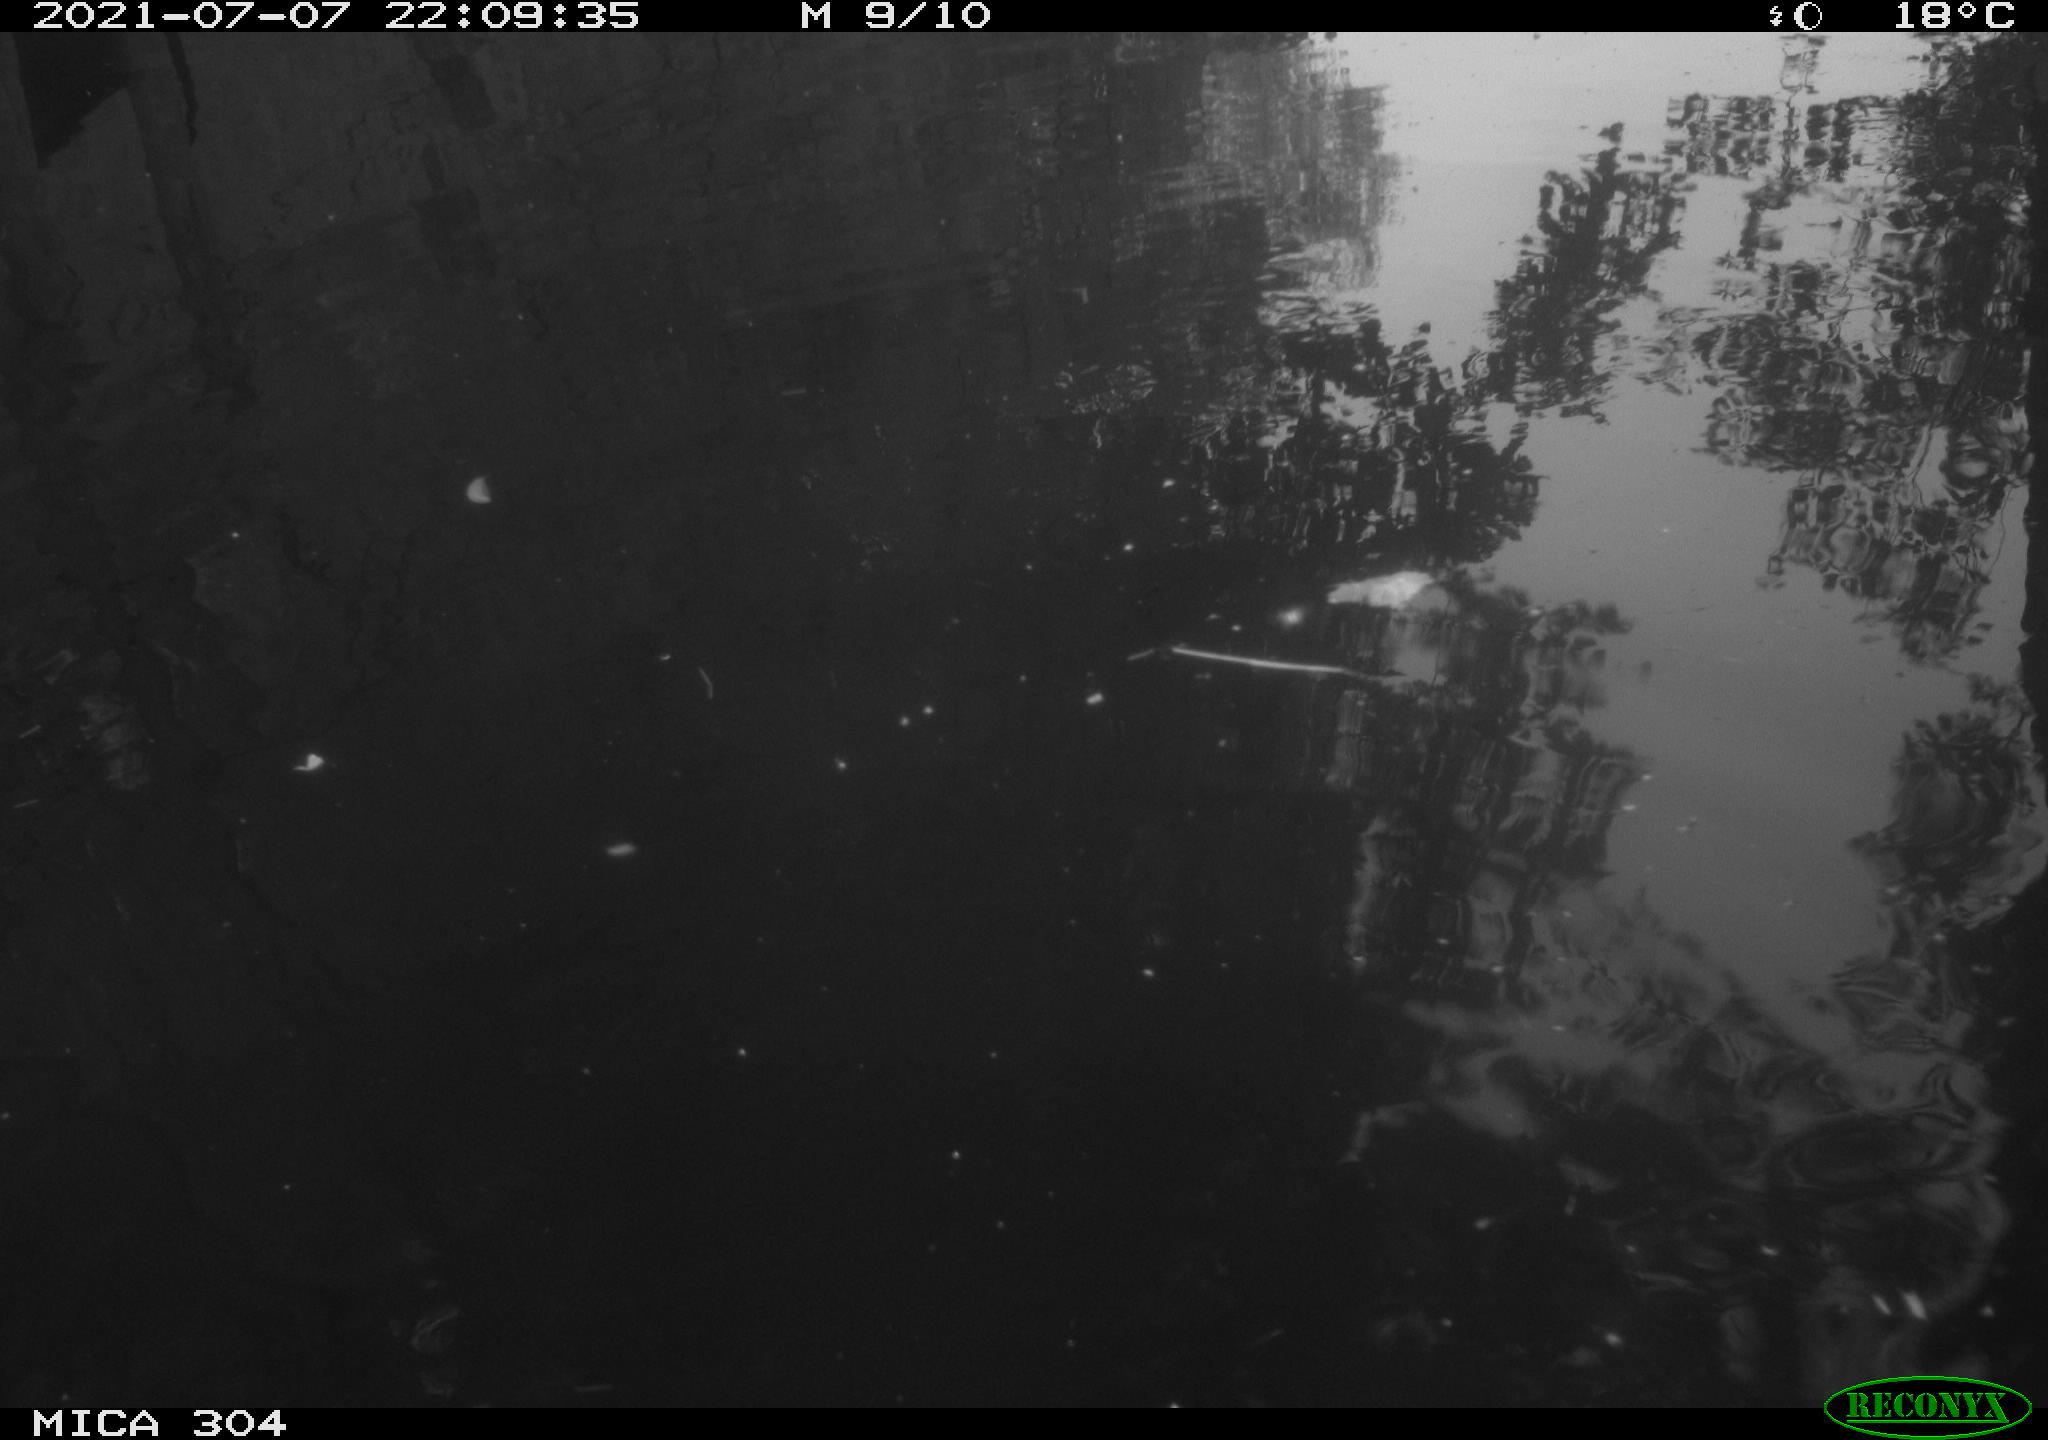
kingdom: Animalia
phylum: Chordata
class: Aves
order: Anseriformes
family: Anatidae
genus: Anas
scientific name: Anas platyrhynchos
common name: Mallard
